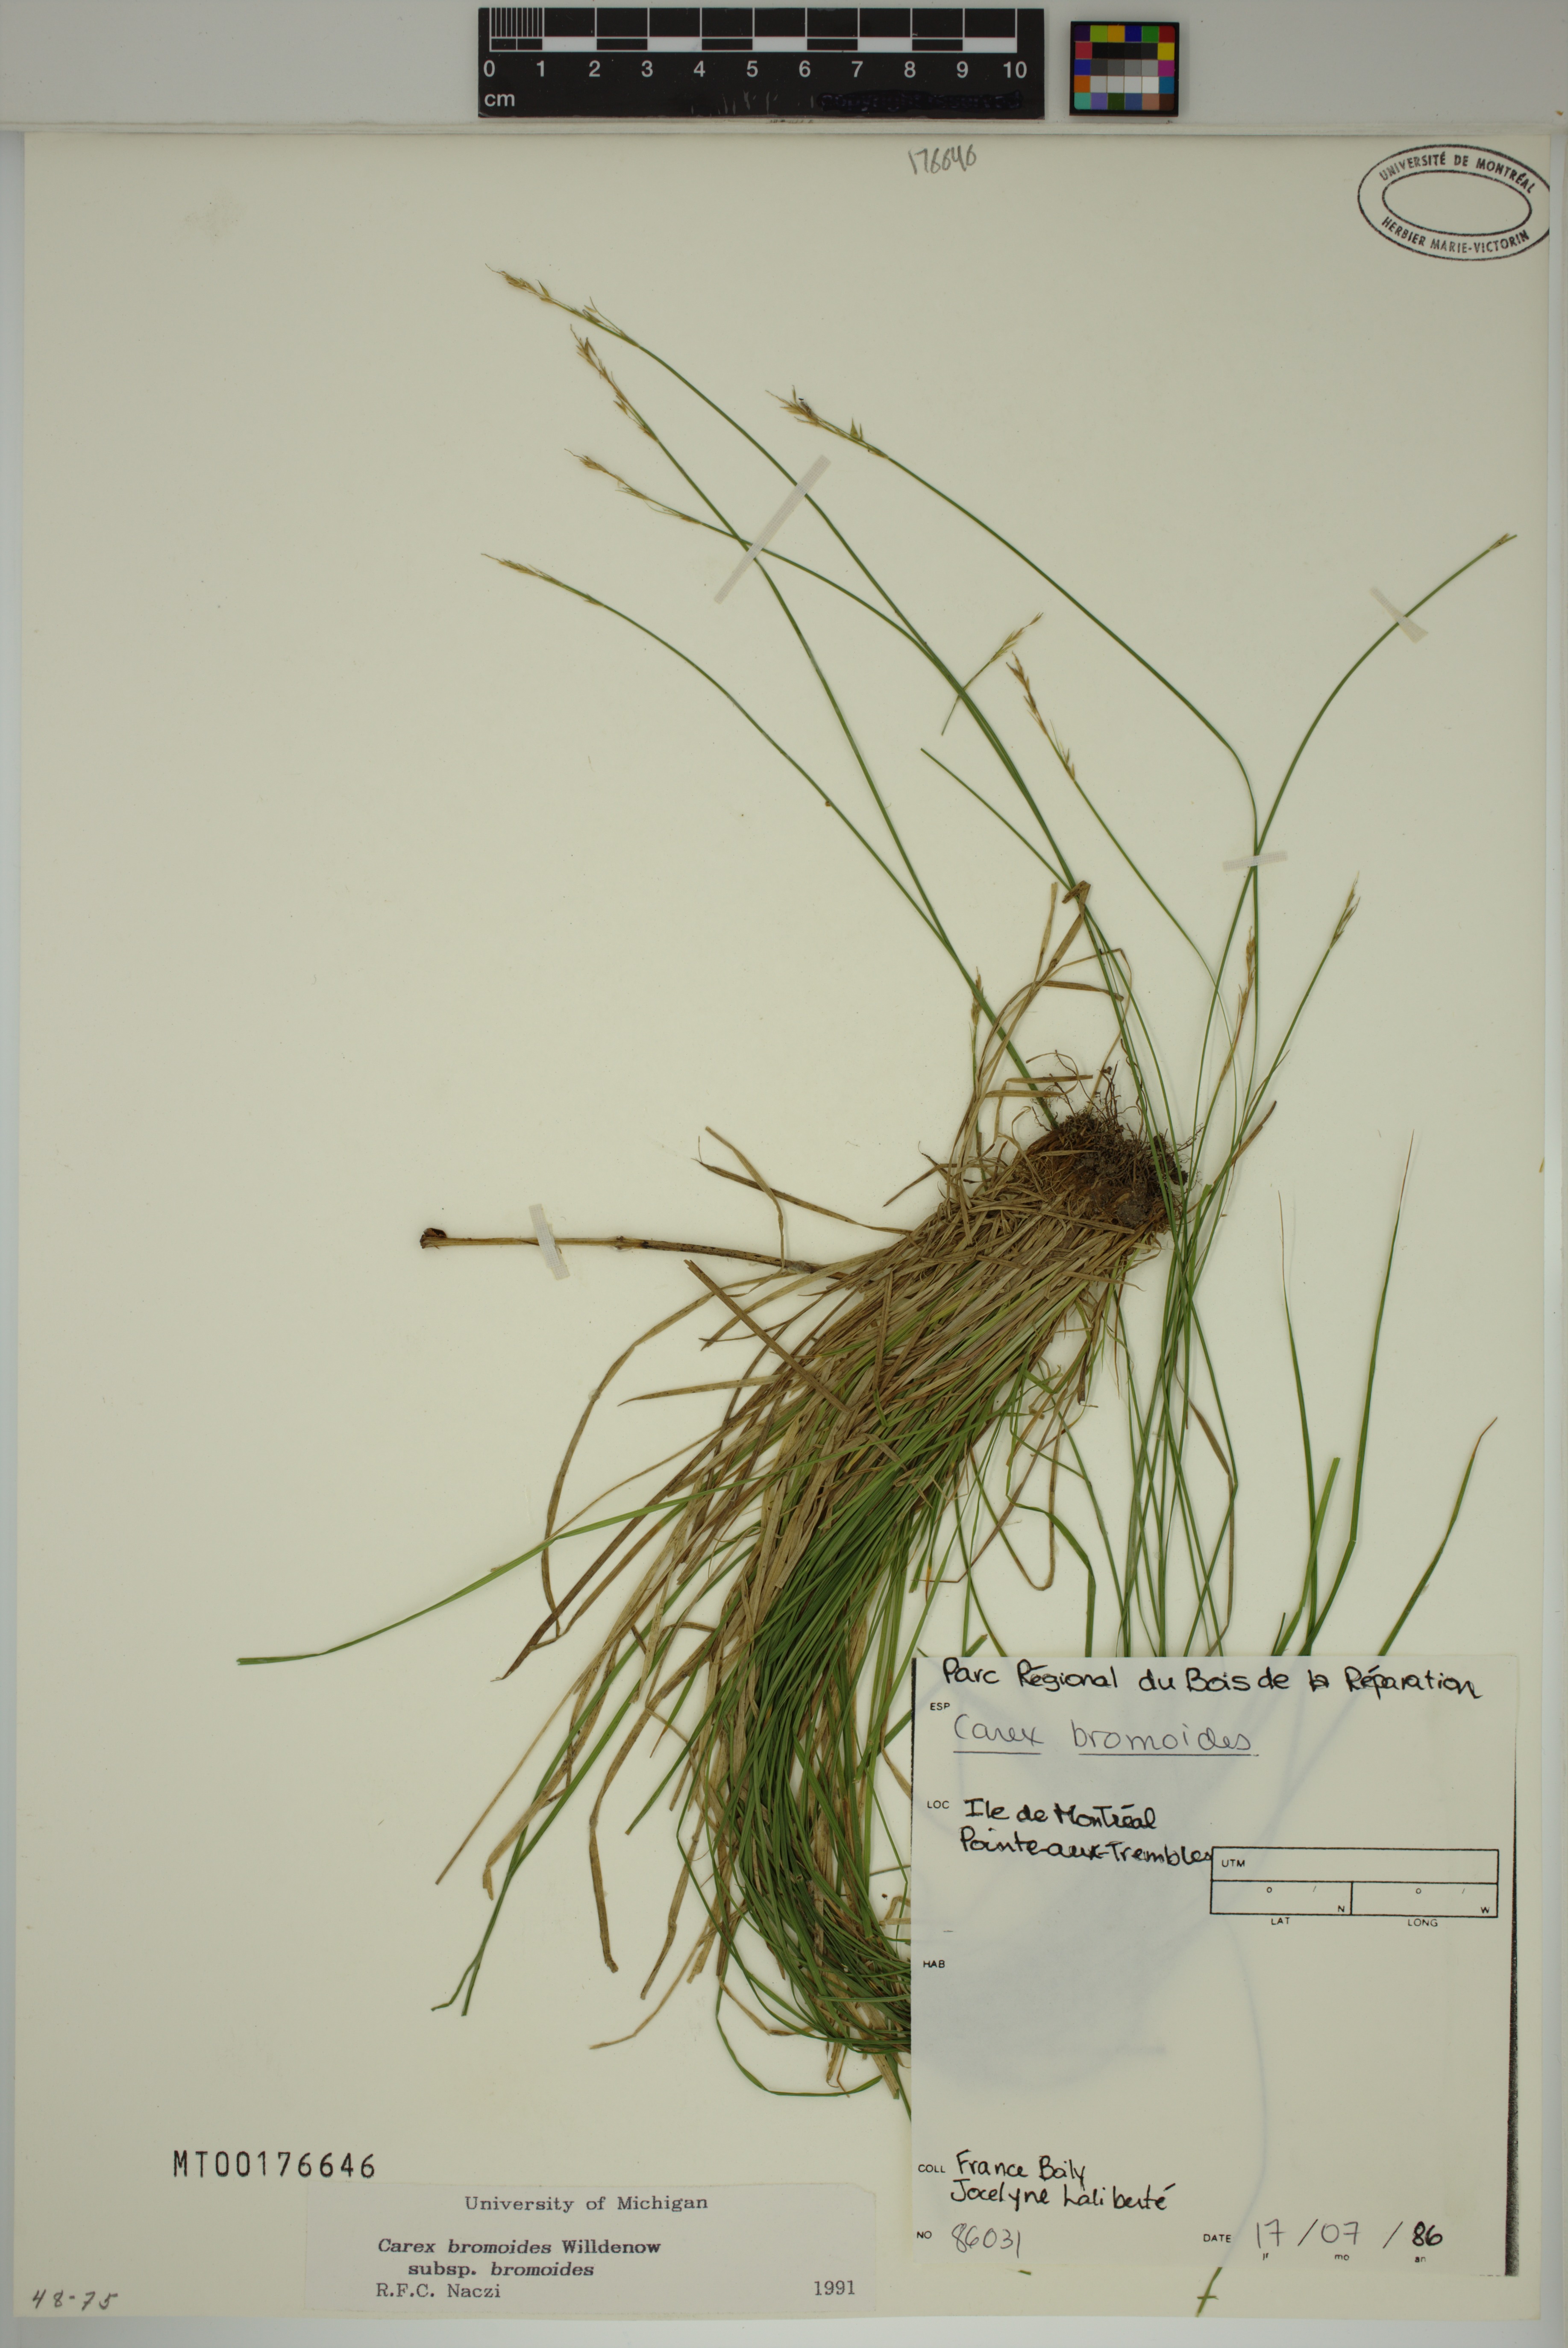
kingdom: Plantae
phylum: Tracheophyta
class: Liliopsida
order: Poales
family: Cyperaceae
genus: Carex
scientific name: Carex bromoides
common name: Brome hummock sedge
